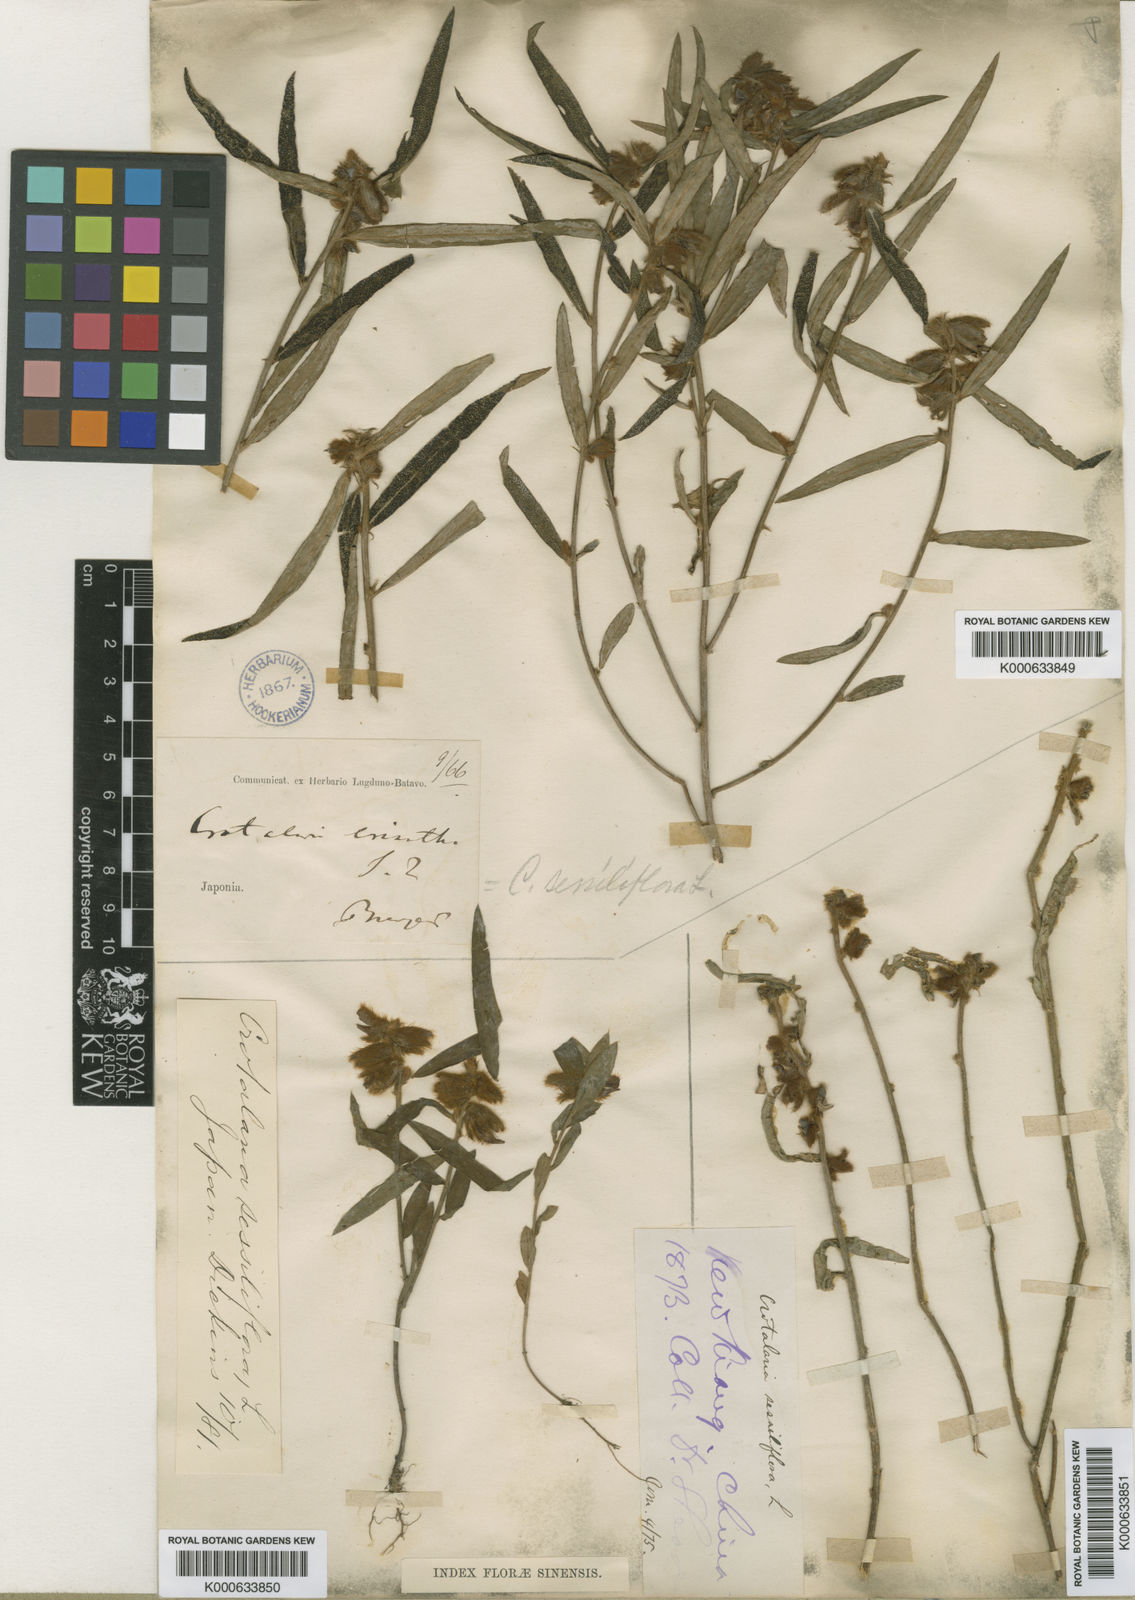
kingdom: Plantae
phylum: Tracheophyta
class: Magnoliopsida
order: Fabales
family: Fabaceae
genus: Crotalaria
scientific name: Crotalaria sessiliflora
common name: Rattlebox
